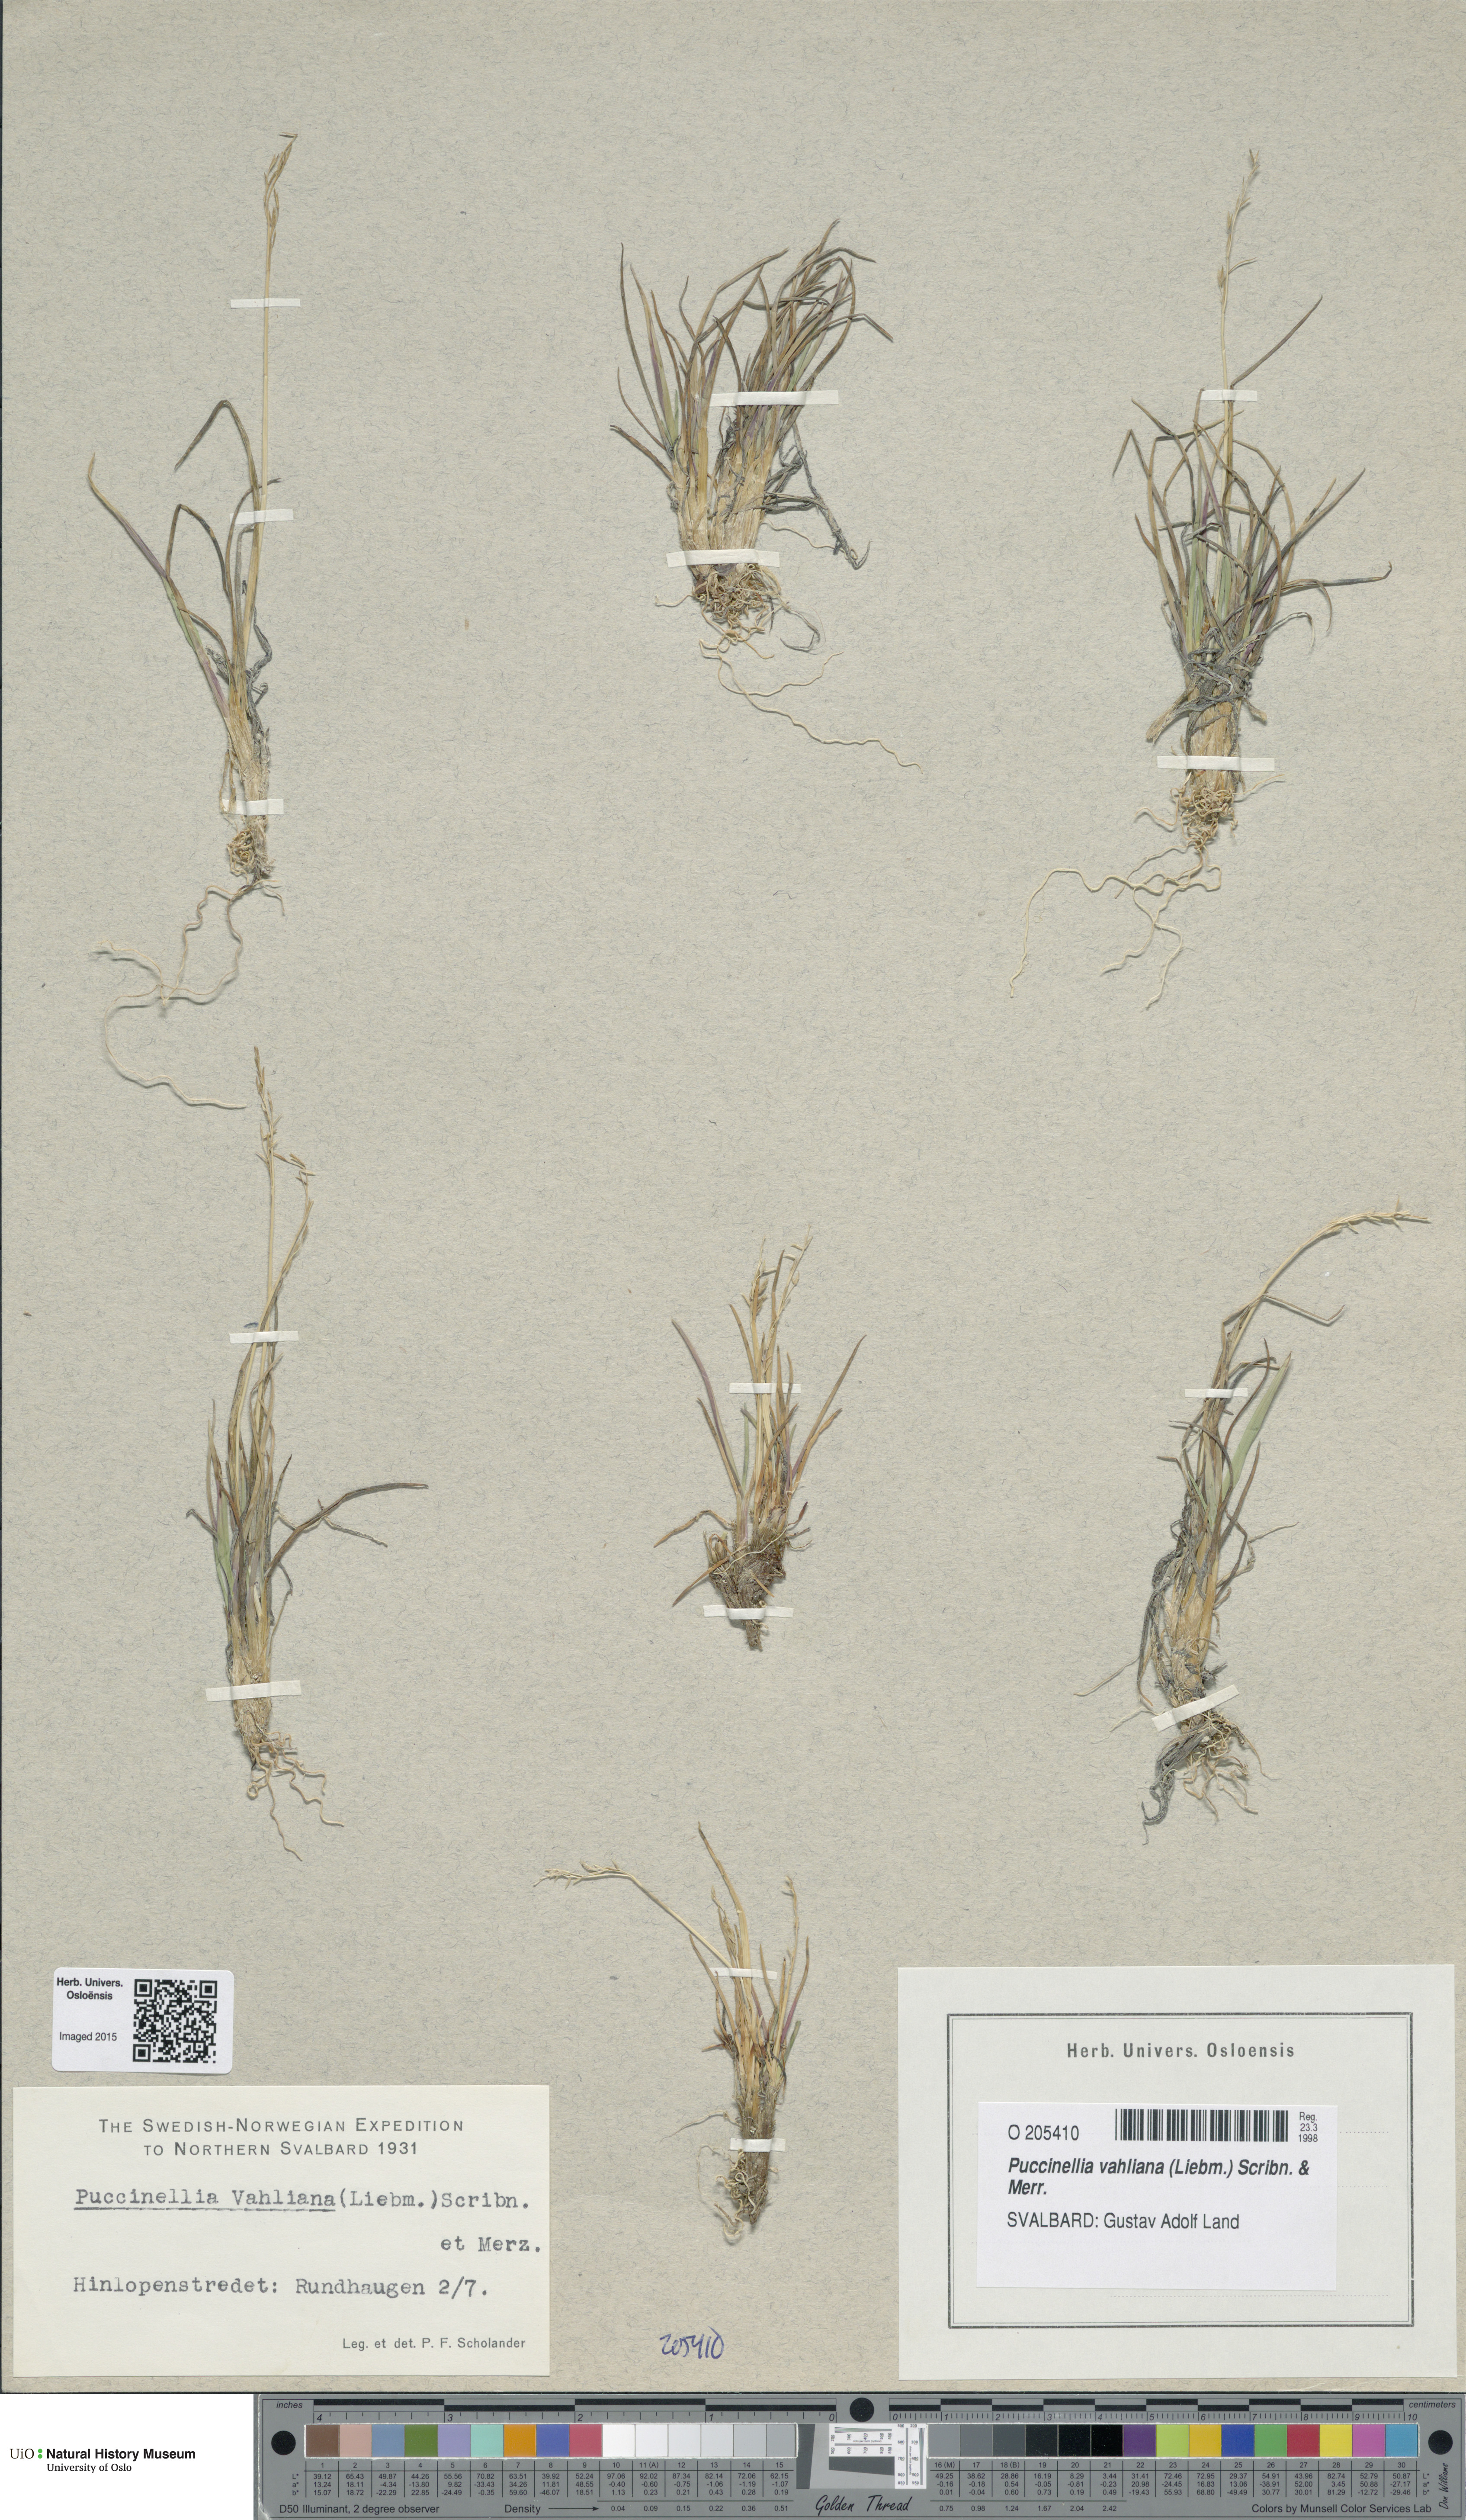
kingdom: Plantae
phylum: Tracheophyta
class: Liliopsida
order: Poales
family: Poaceae
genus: Puccinellia
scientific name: Puccinellia vahliana
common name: Vahl's alkaligrass
